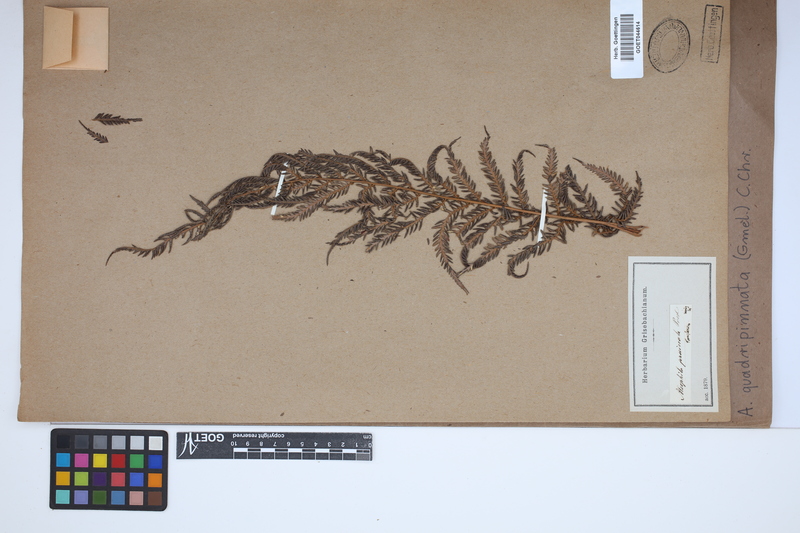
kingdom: Plantae
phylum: Tracheophyta
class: Polypodiopsida
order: Cyatheales
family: Dicksoniaceae
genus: Lophosoria
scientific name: Lophosoria quadripinnata
